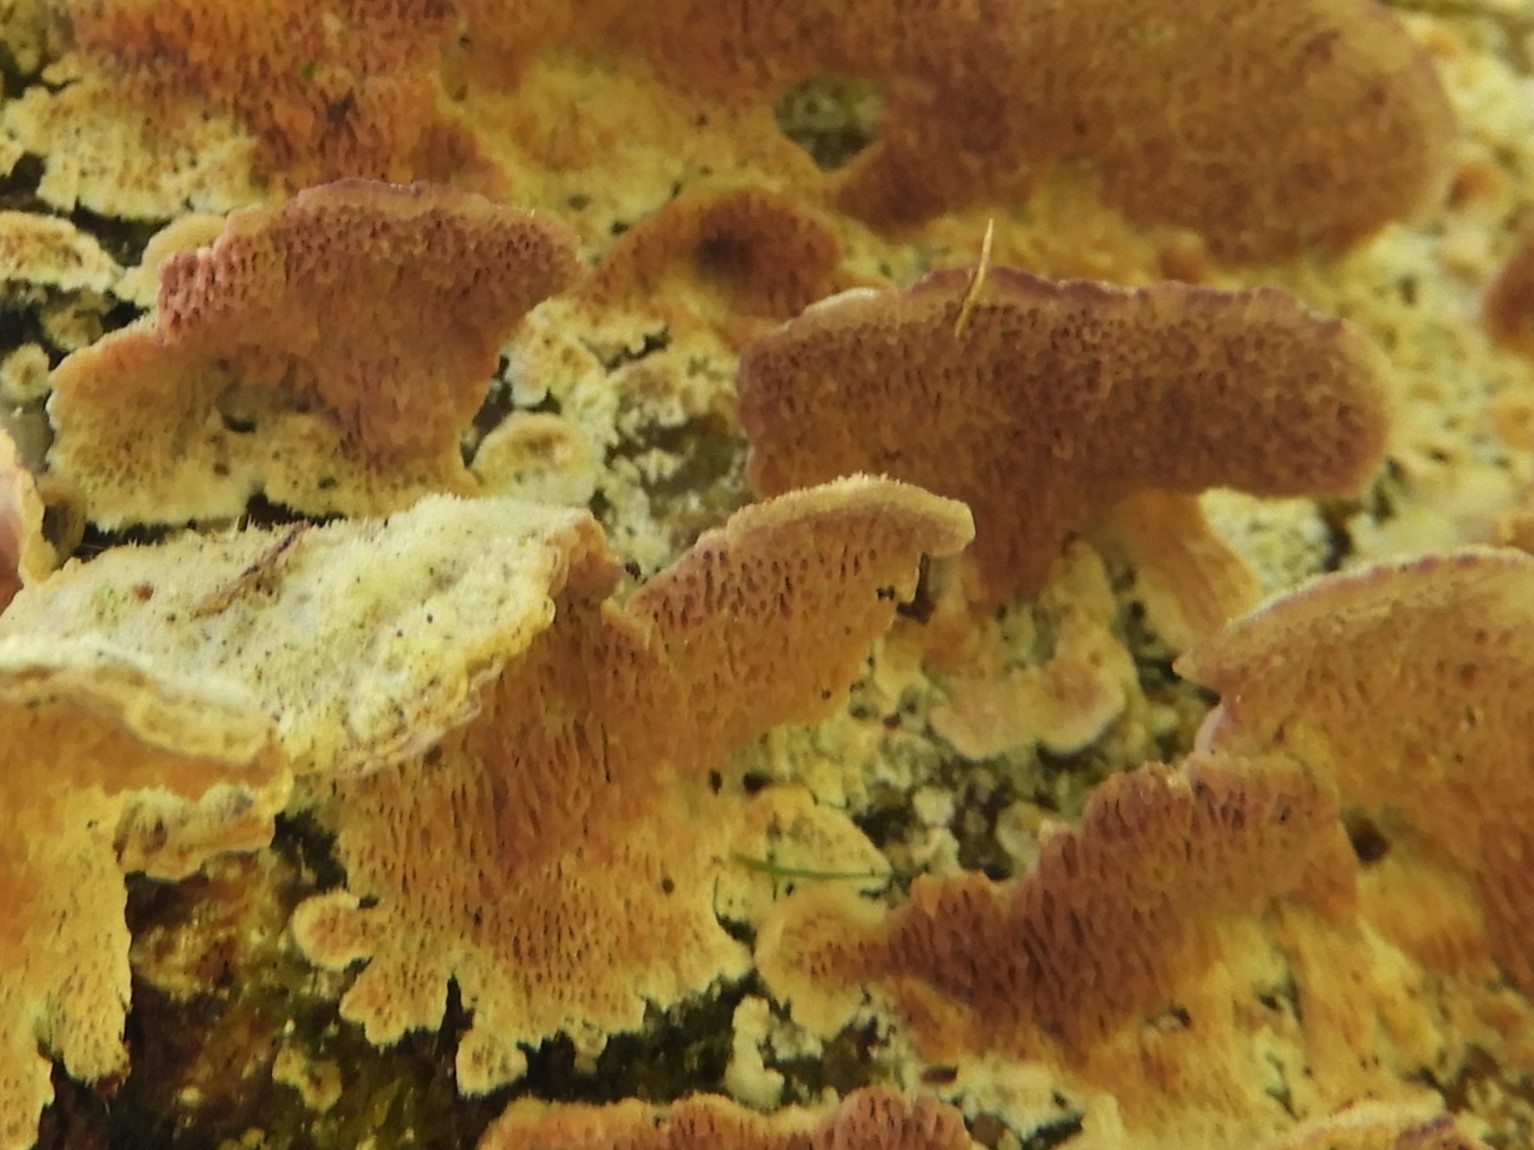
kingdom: Fungi
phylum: Basidiomycota
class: Agaricomycetes
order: Hymenochaetales
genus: Trichaptum
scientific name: Trichaptum abietinum
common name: almindelig violporesvamp
